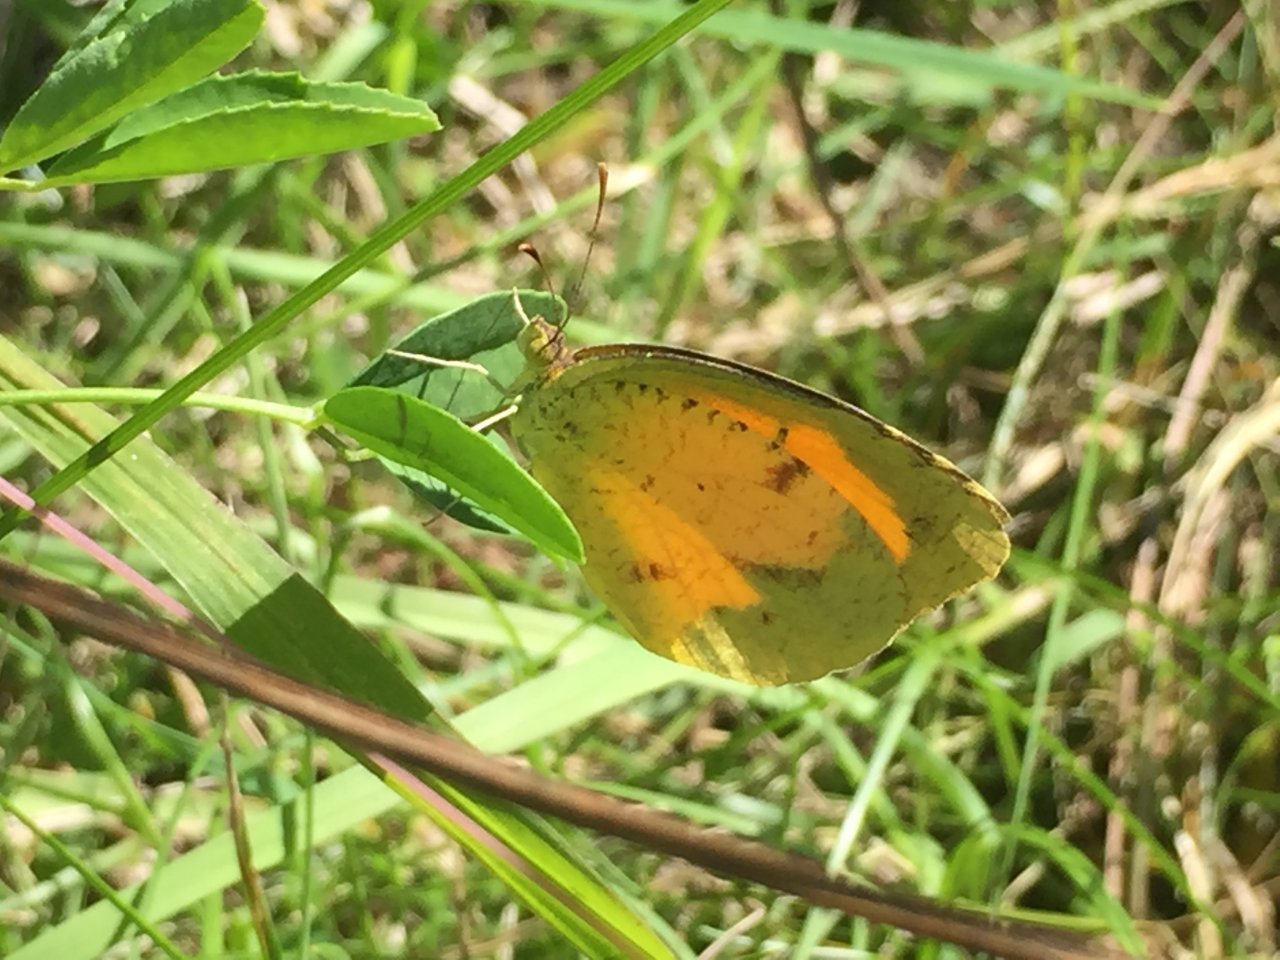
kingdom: Animalia
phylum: Arthropoda
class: Insecta
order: Lepidoptera
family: Pieridae
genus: Abaeis
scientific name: Abaeis nicippe
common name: Sleepy Orange
